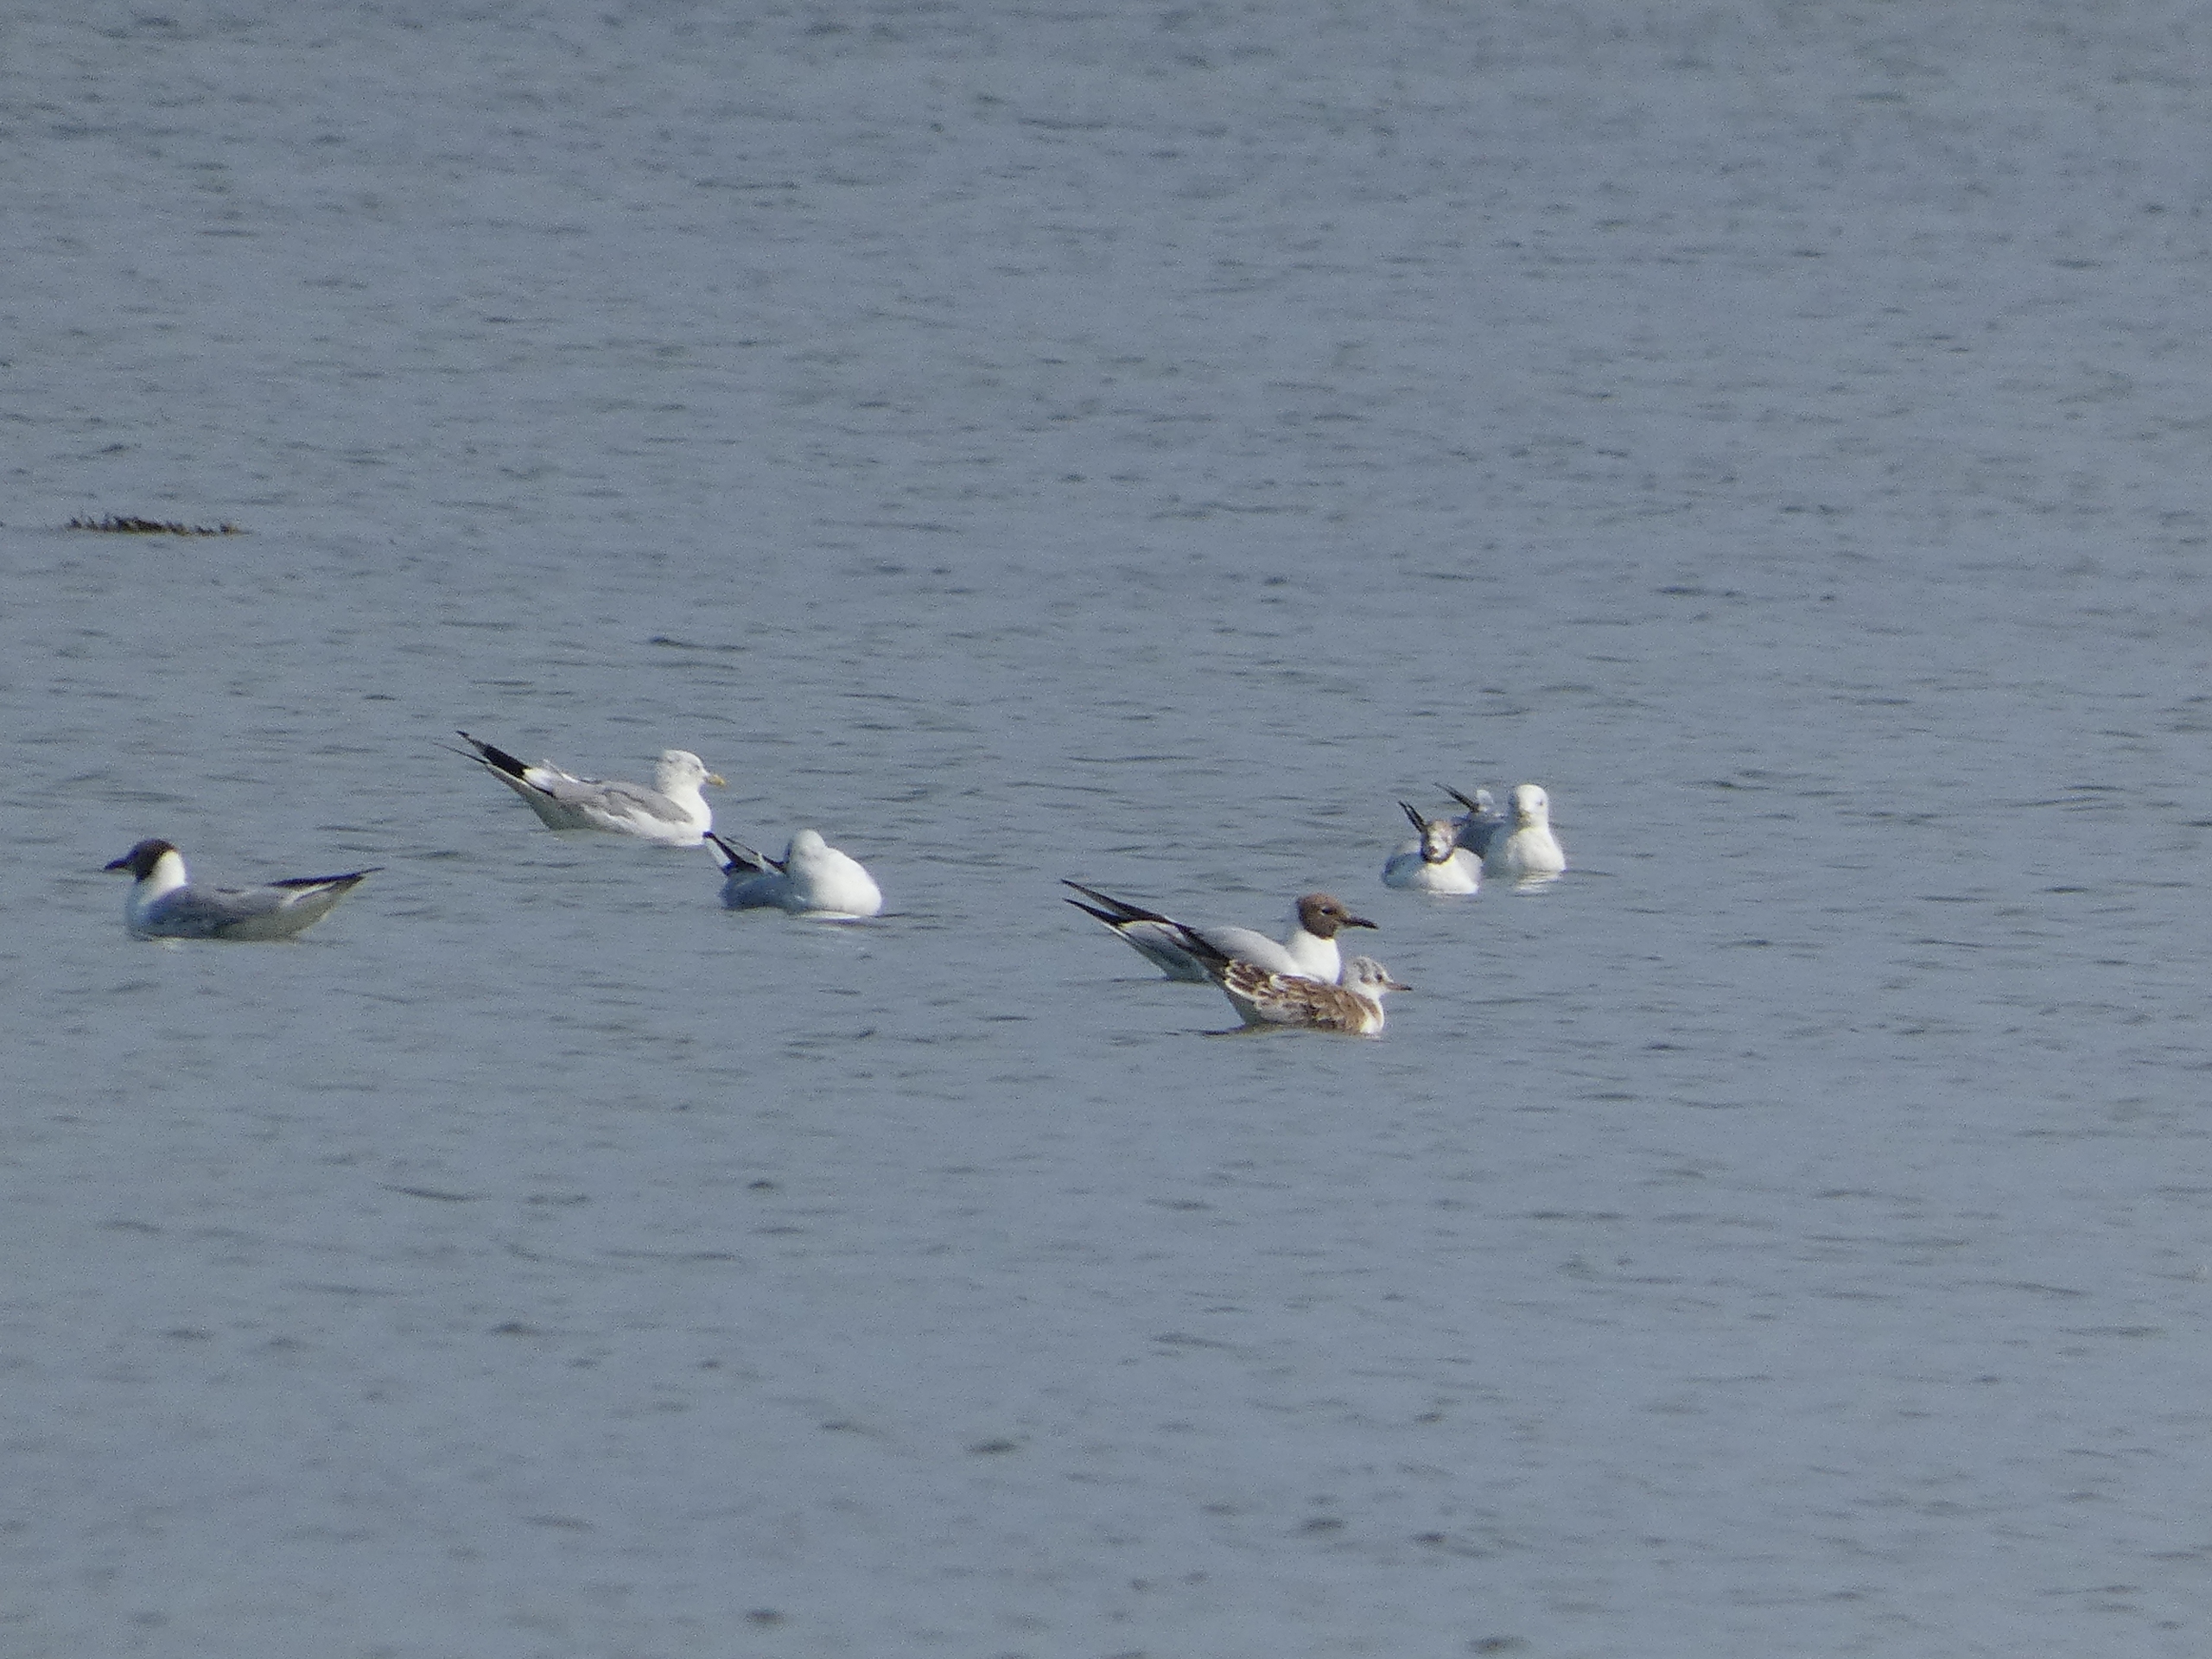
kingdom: Animalia
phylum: Chordata
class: Aves
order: Charadriiformes
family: Laridae
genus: Chroicocephalus
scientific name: Chroicocephalus ridibundus
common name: Hættemåge
